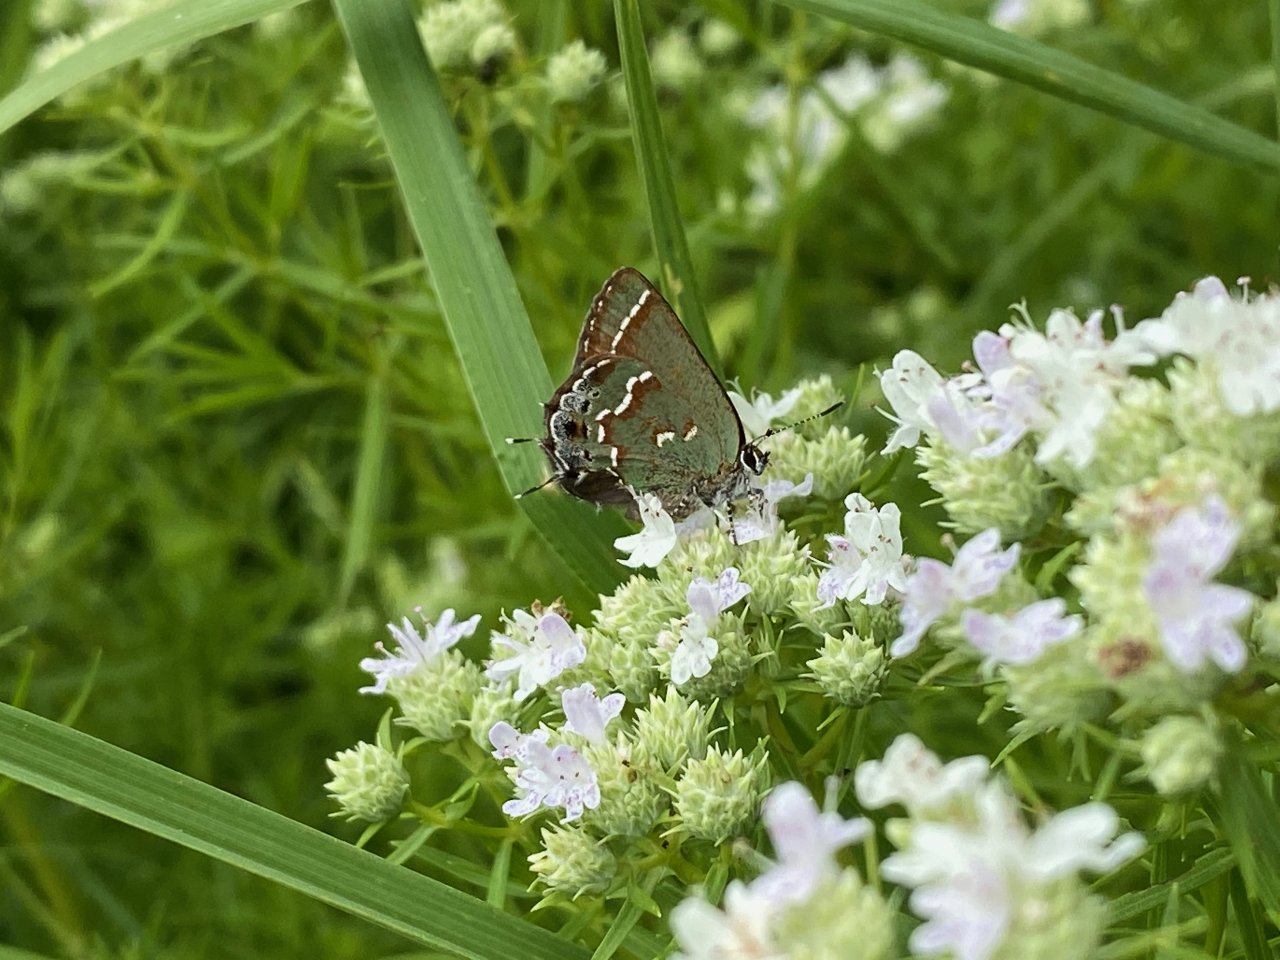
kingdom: Animalia
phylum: Arthropoda
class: Insecta
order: Lepidoptera
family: Lycaenidae
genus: Mitoura
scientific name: Mitoura gryneus
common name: Juniper Hairstreak
